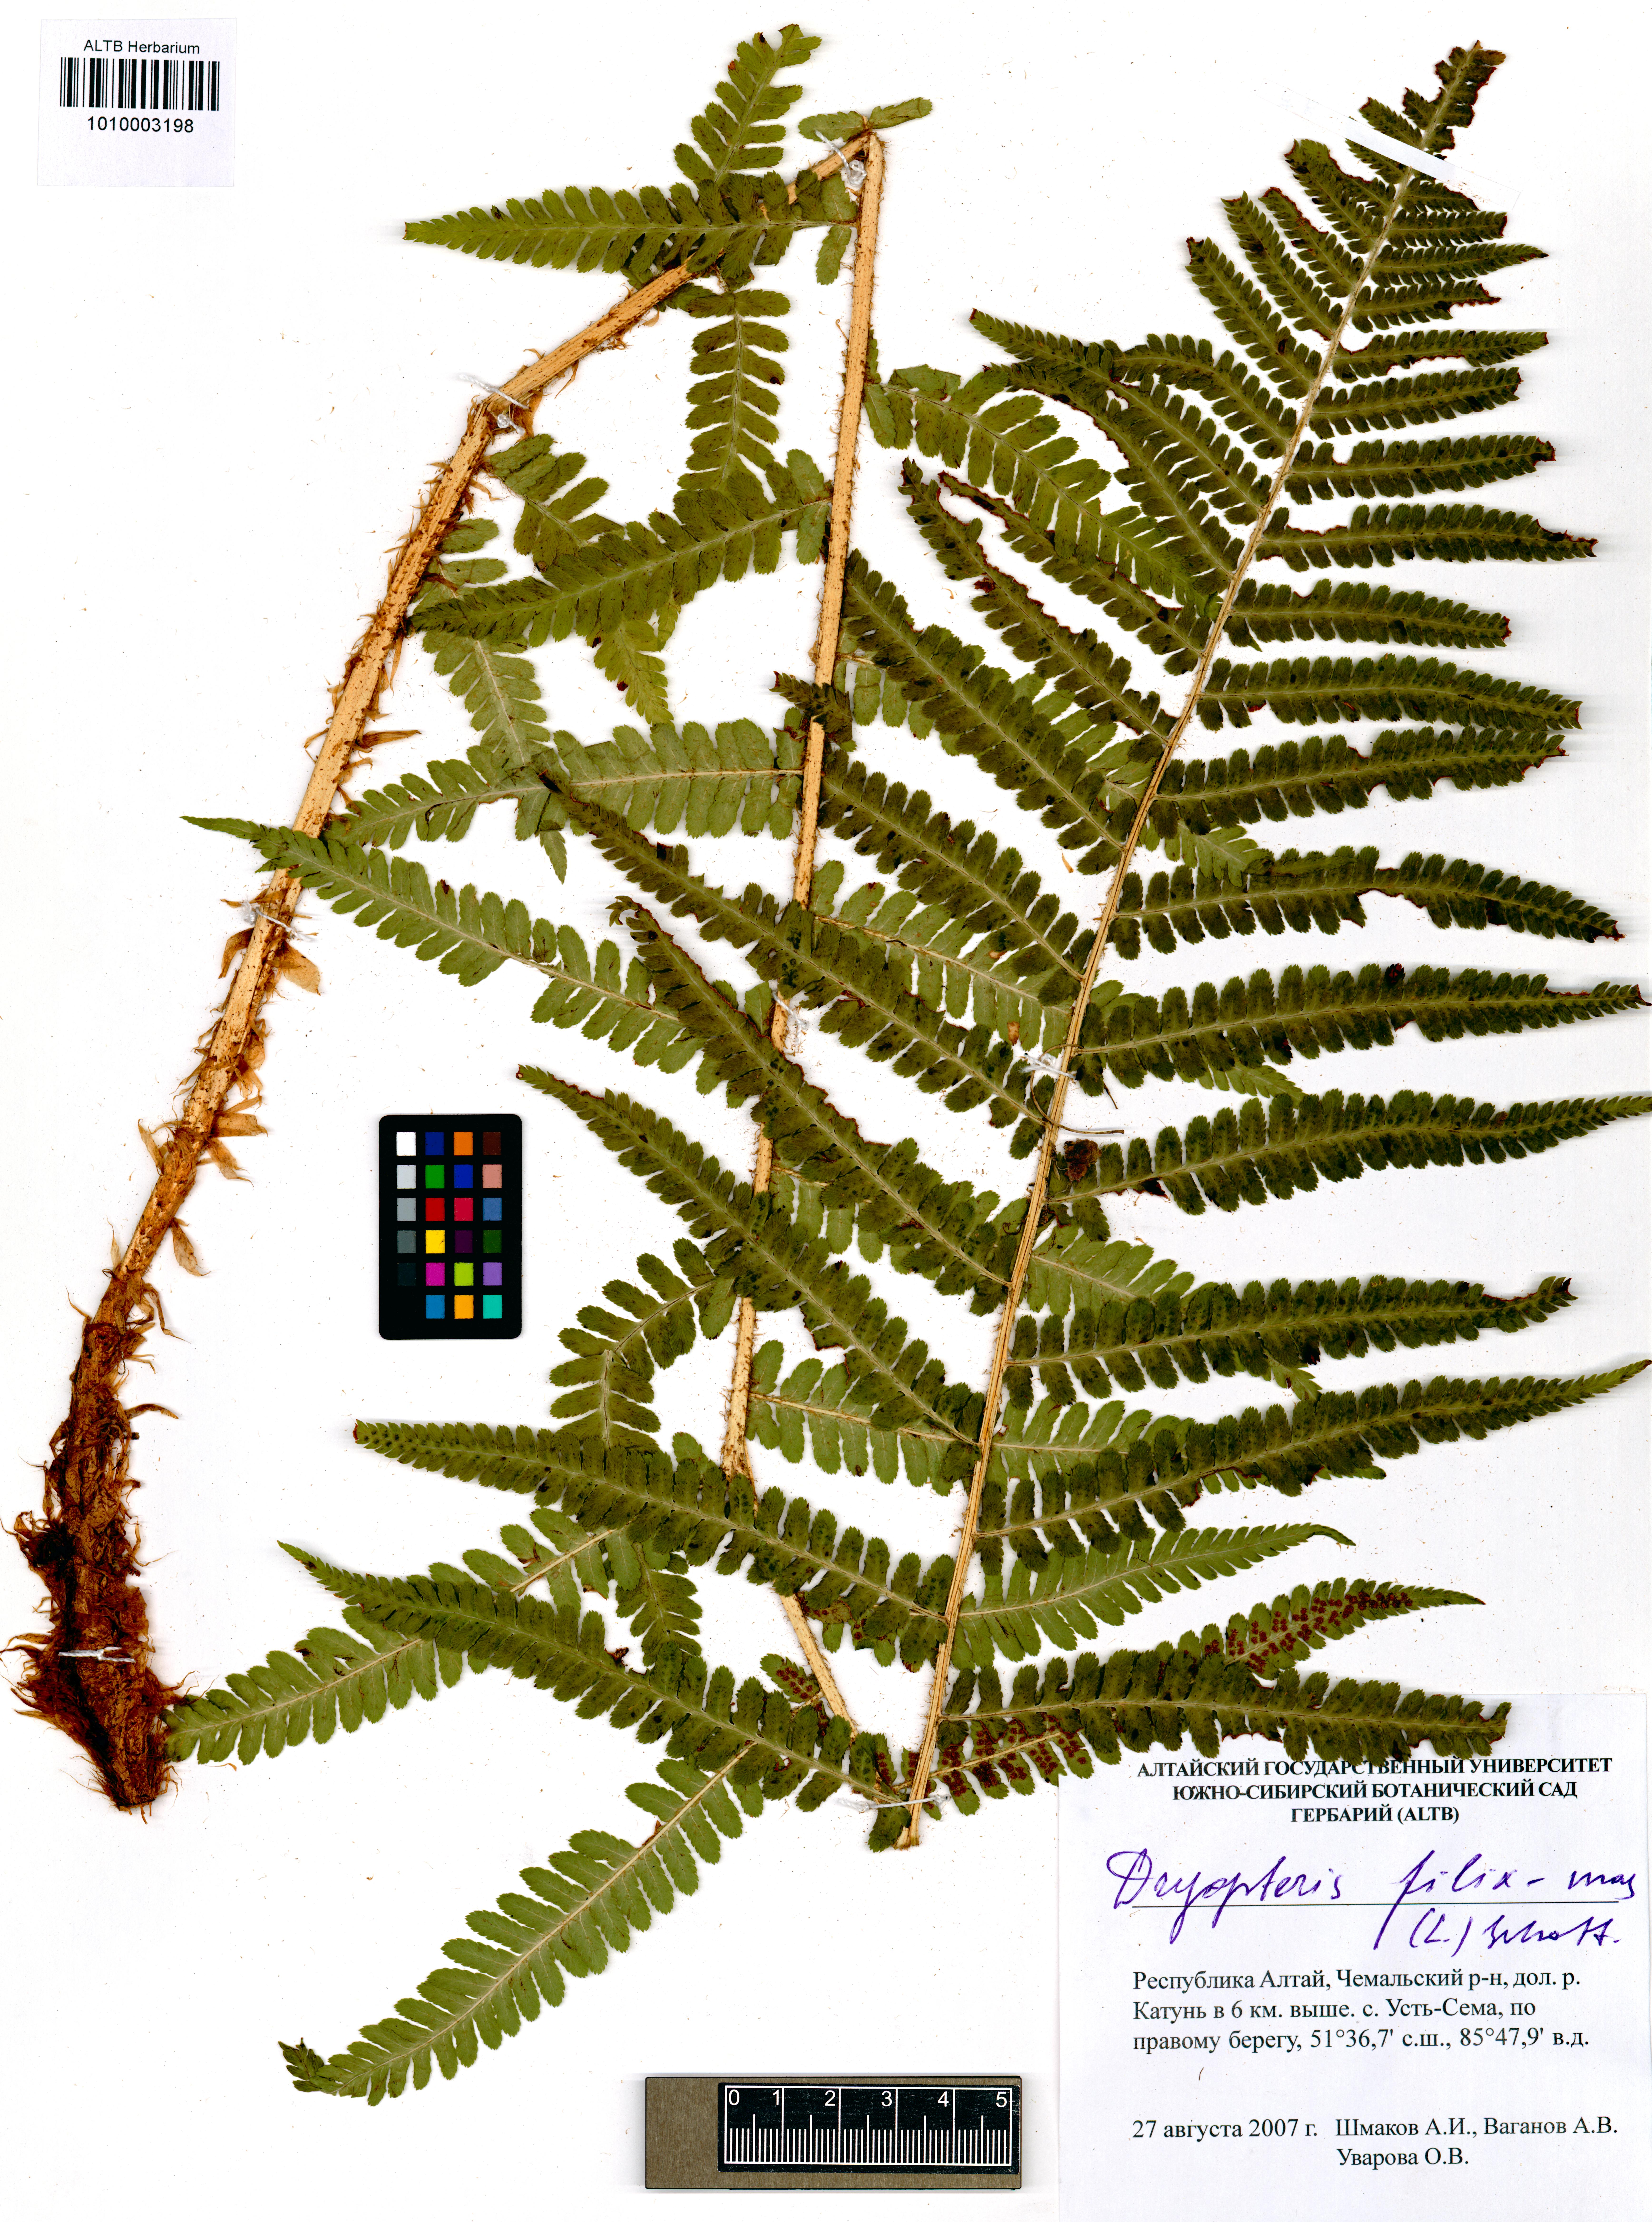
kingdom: Plantae
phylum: Tracheophyta
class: Polypodiopsida
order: Polypodiales
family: Dryopteridaceae
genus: Dryopteris
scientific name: Dryopteris filix-mas
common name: Male fern
